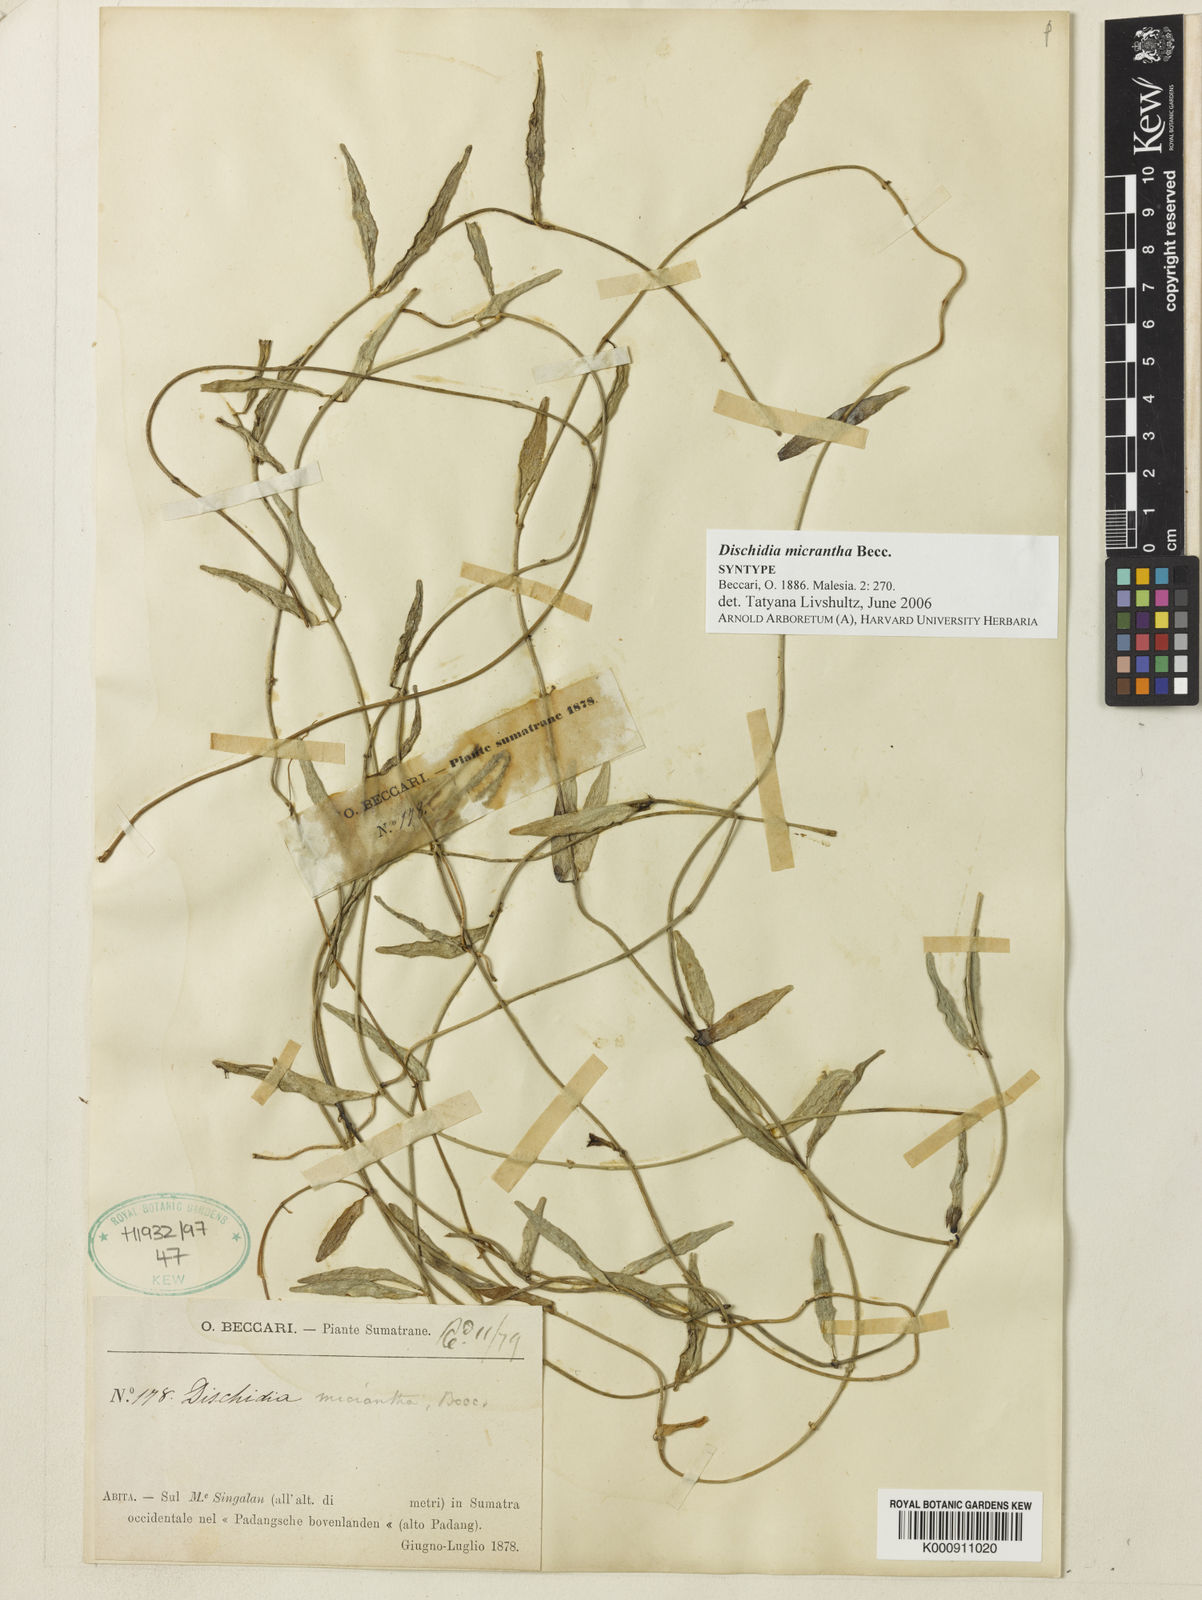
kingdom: Plantae
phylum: Tracheophyta
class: Magnoliopsida
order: Gentianales
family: Apocynaceae
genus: Dischidia
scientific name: Dischidia micrantha
